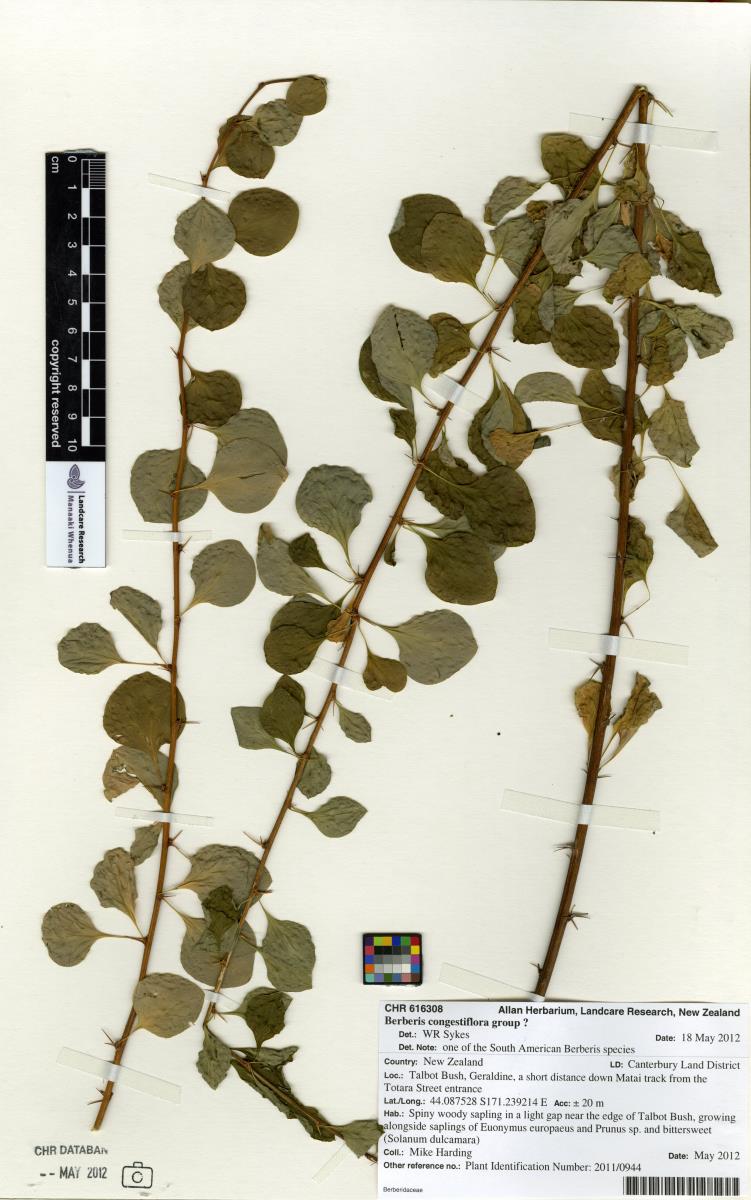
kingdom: Plantae
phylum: Tracheophyta
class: Magnoliopsida
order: Ranunculales
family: Berberidaceae
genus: Berberis
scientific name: Berberis congestiflora
